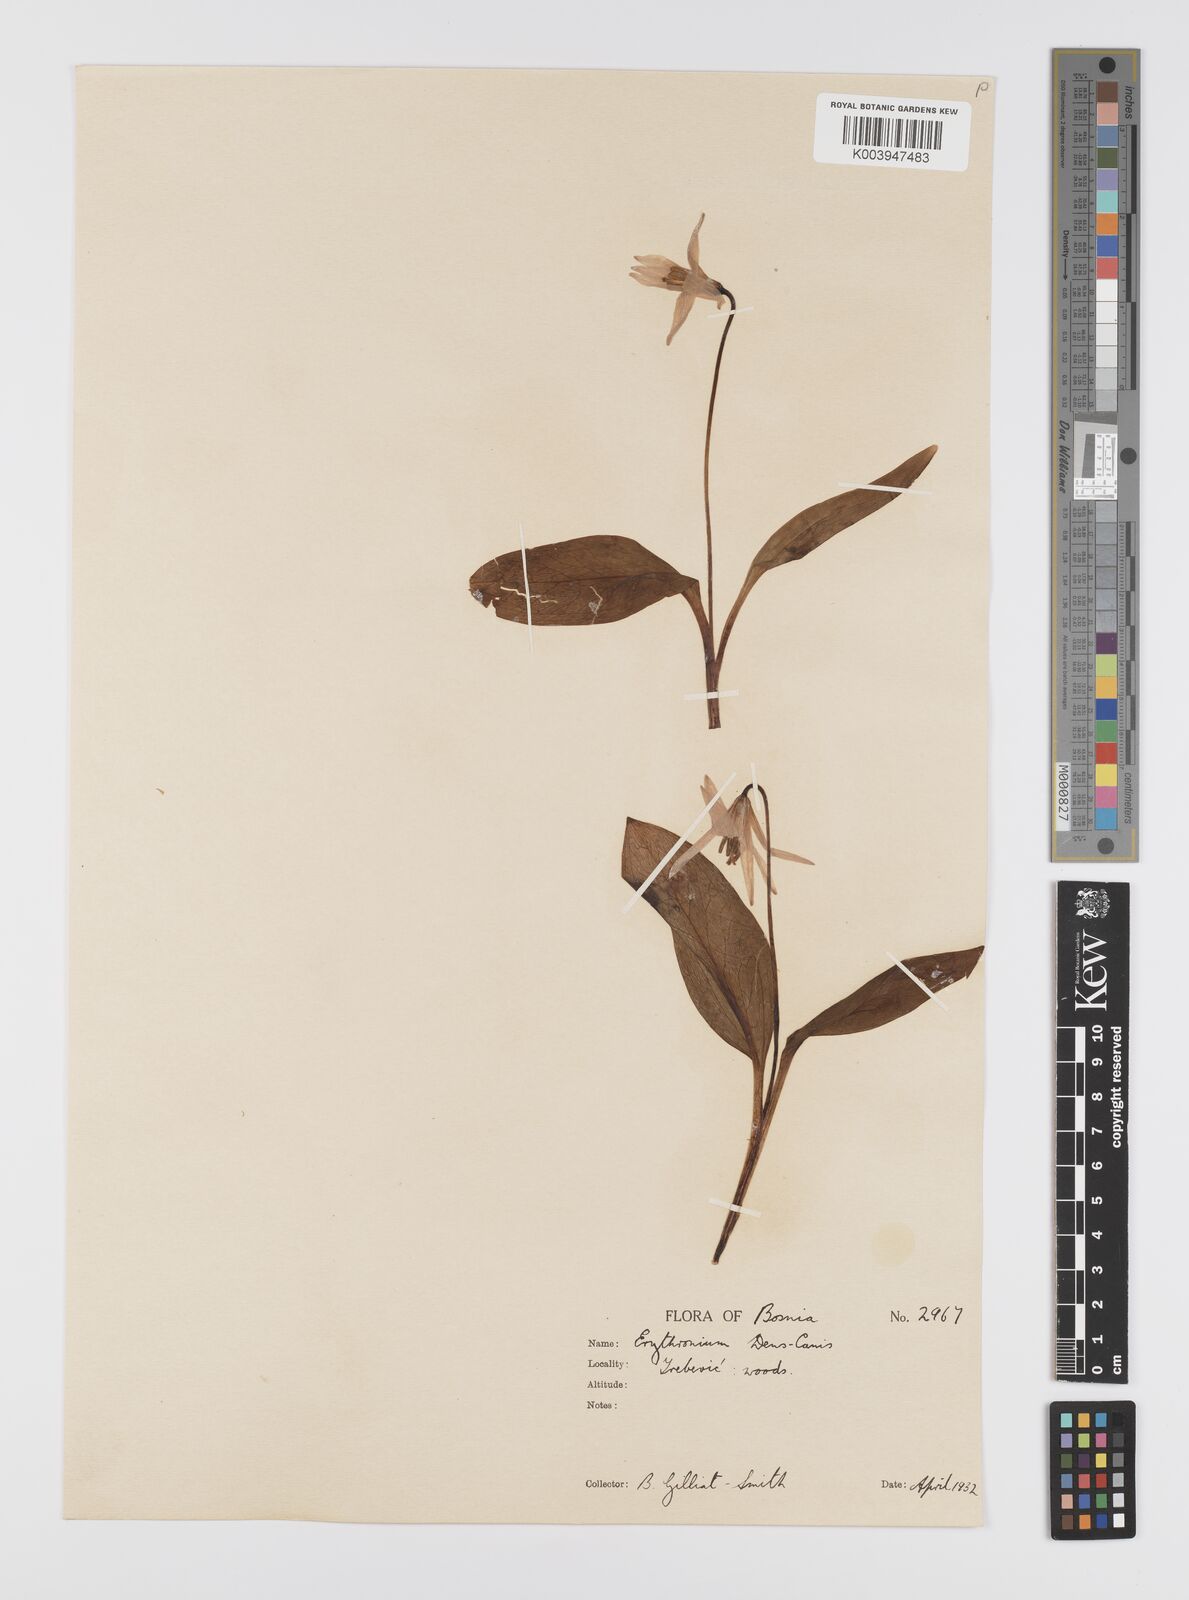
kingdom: Plantae
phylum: Tracheophyta
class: Liliopsida
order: Liliales
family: Liliaceae
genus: Erythronium
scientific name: Erythronium dens-canis
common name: Dog's-tooth-violet
